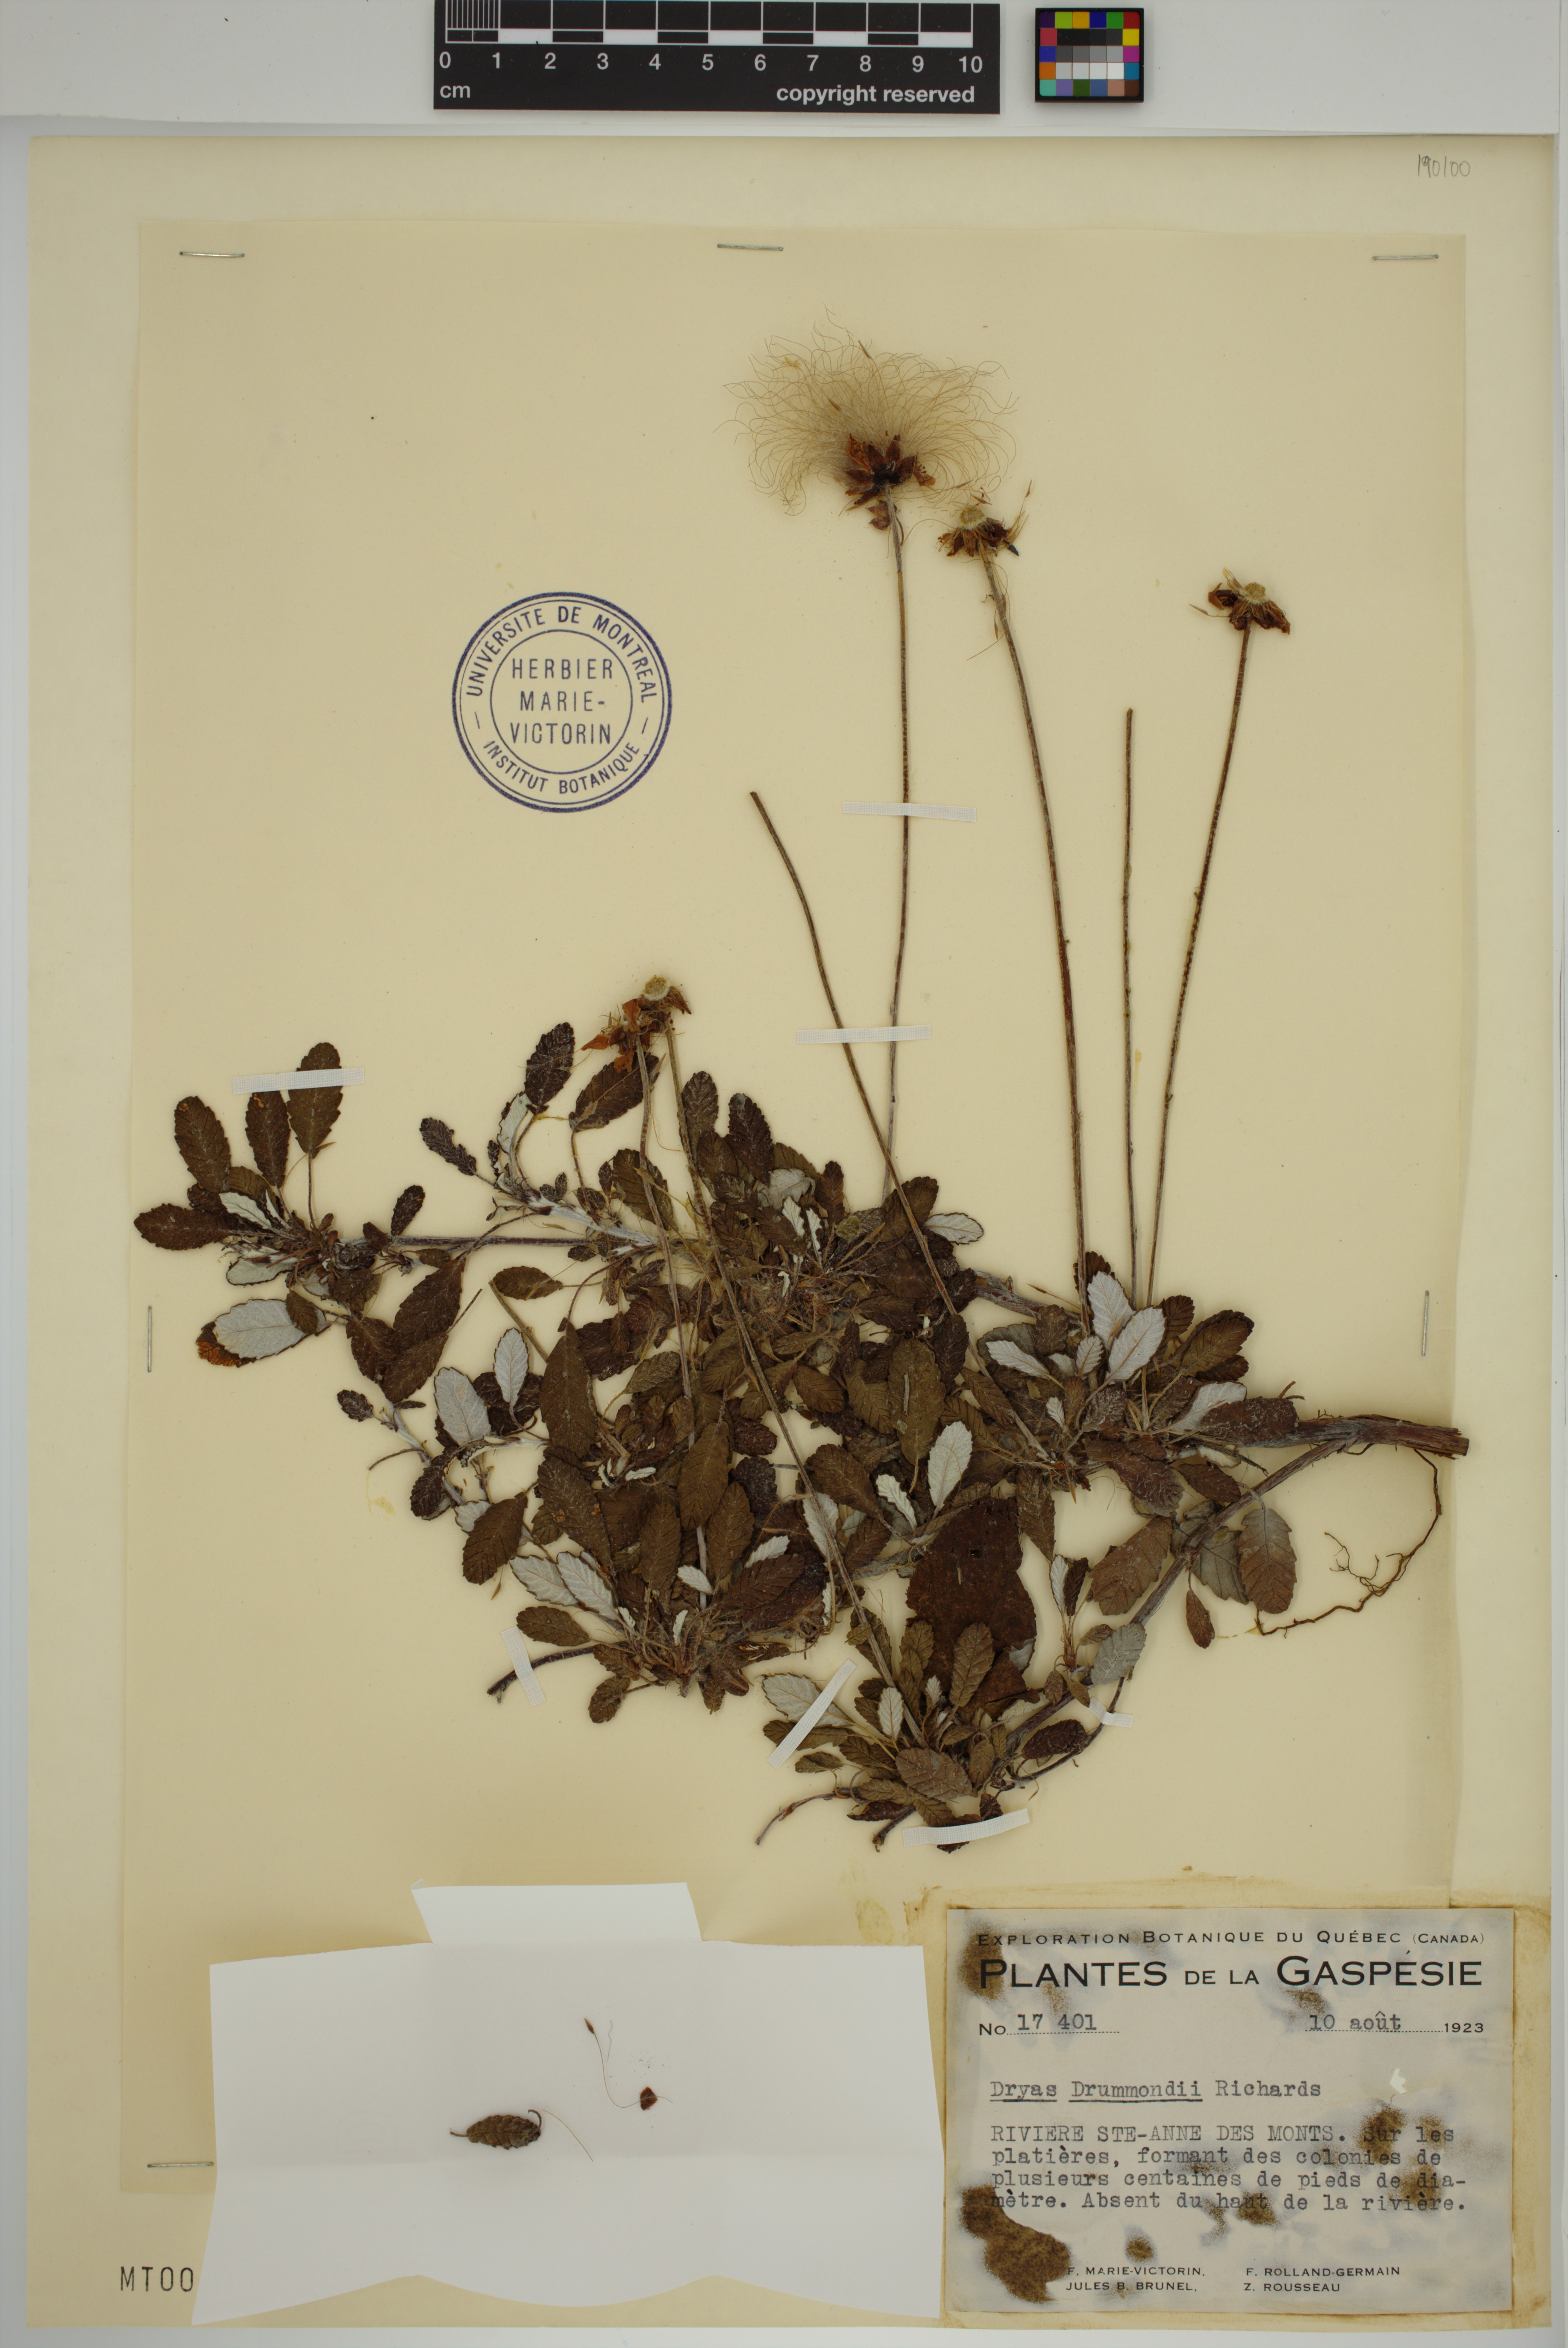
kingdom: Plantae
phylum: Tracheophyta
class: Magnoliopsida
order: Rosales
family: Rosaceae
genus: Dryas
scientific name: Dryas drummondii
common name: Drummond's dryad
